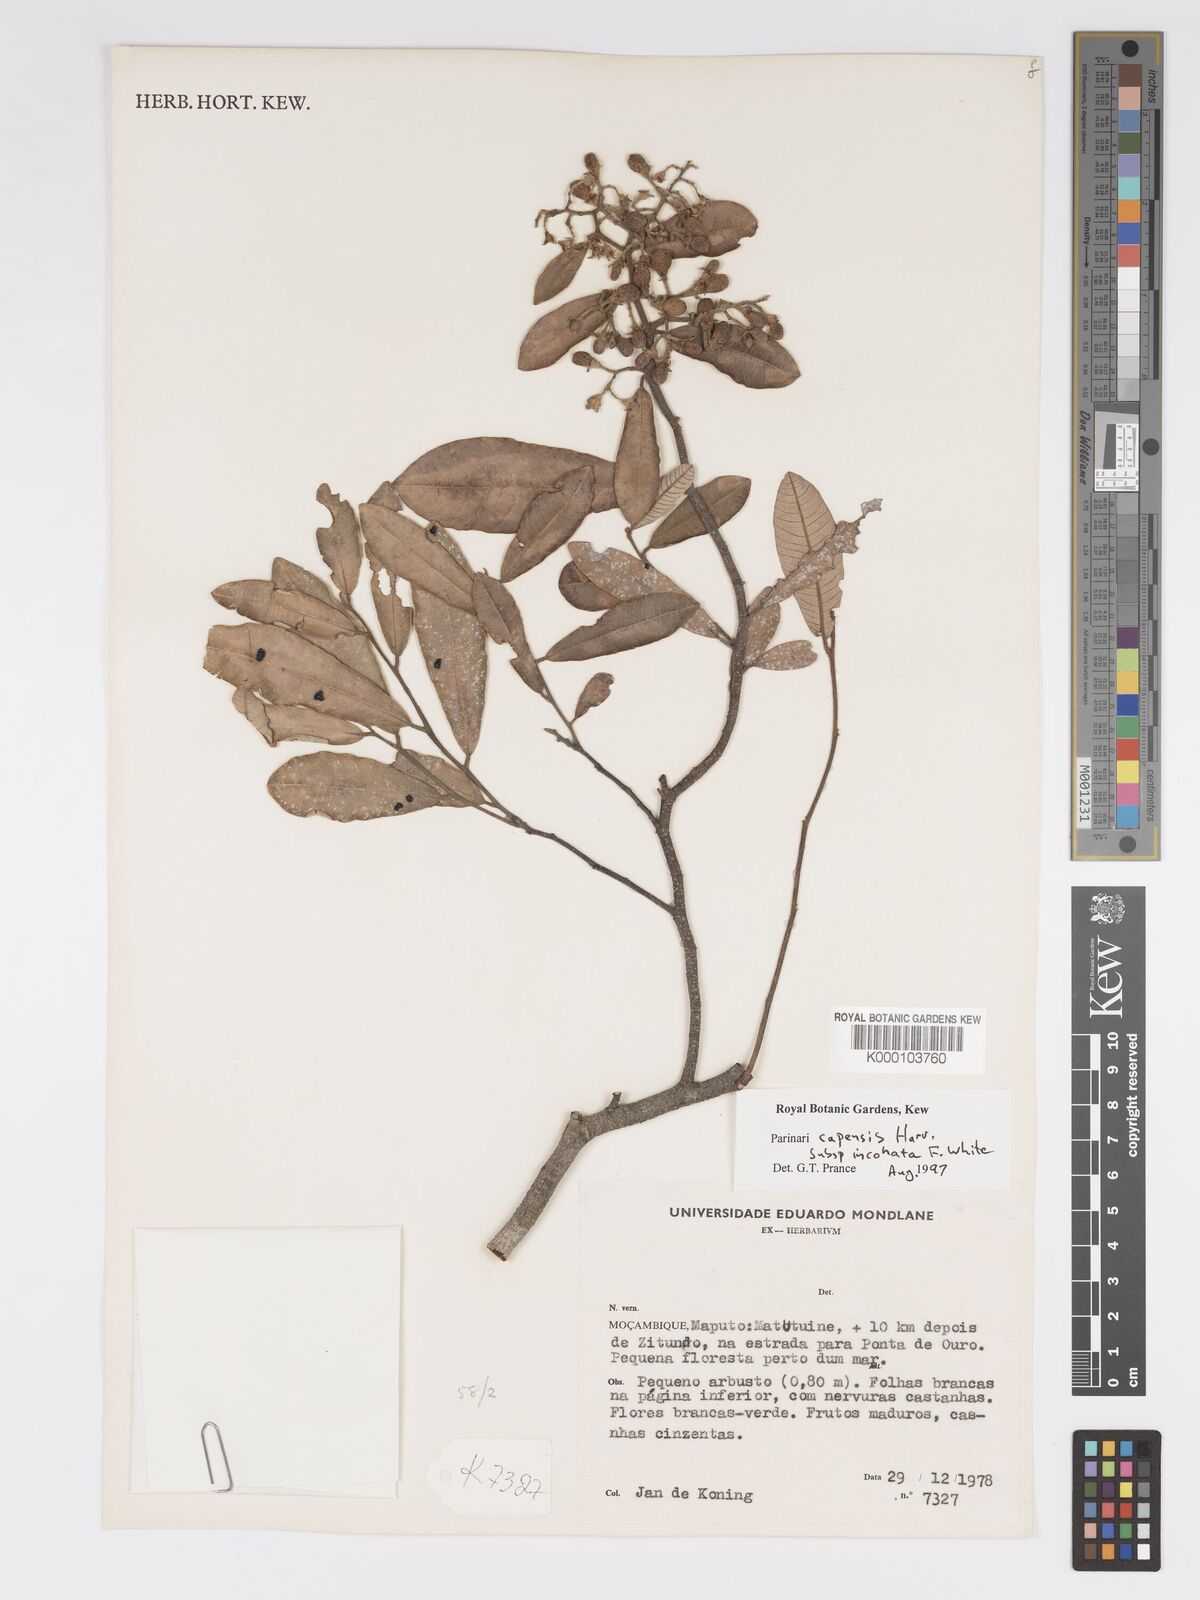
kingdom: Plantae
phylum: Tracheophyta
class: Magnoliopsida
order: Malpighiales
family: Chrysobalanaceae
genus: Parinari
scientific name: Parinari capensis
